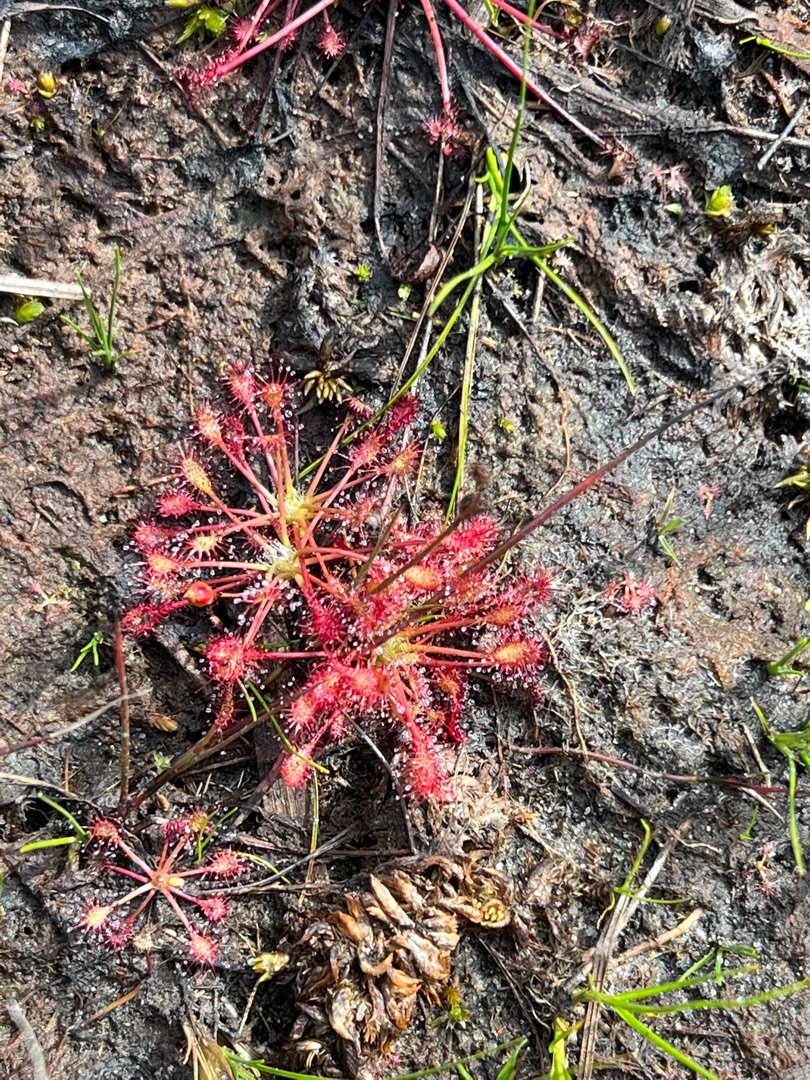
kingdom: Plantae
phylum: Tracheophyta
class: Magnoliopsida
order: Caryophyllales
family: Droseraceae
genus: Drosera
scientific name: Drosera intermedia
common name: Liden soldug
